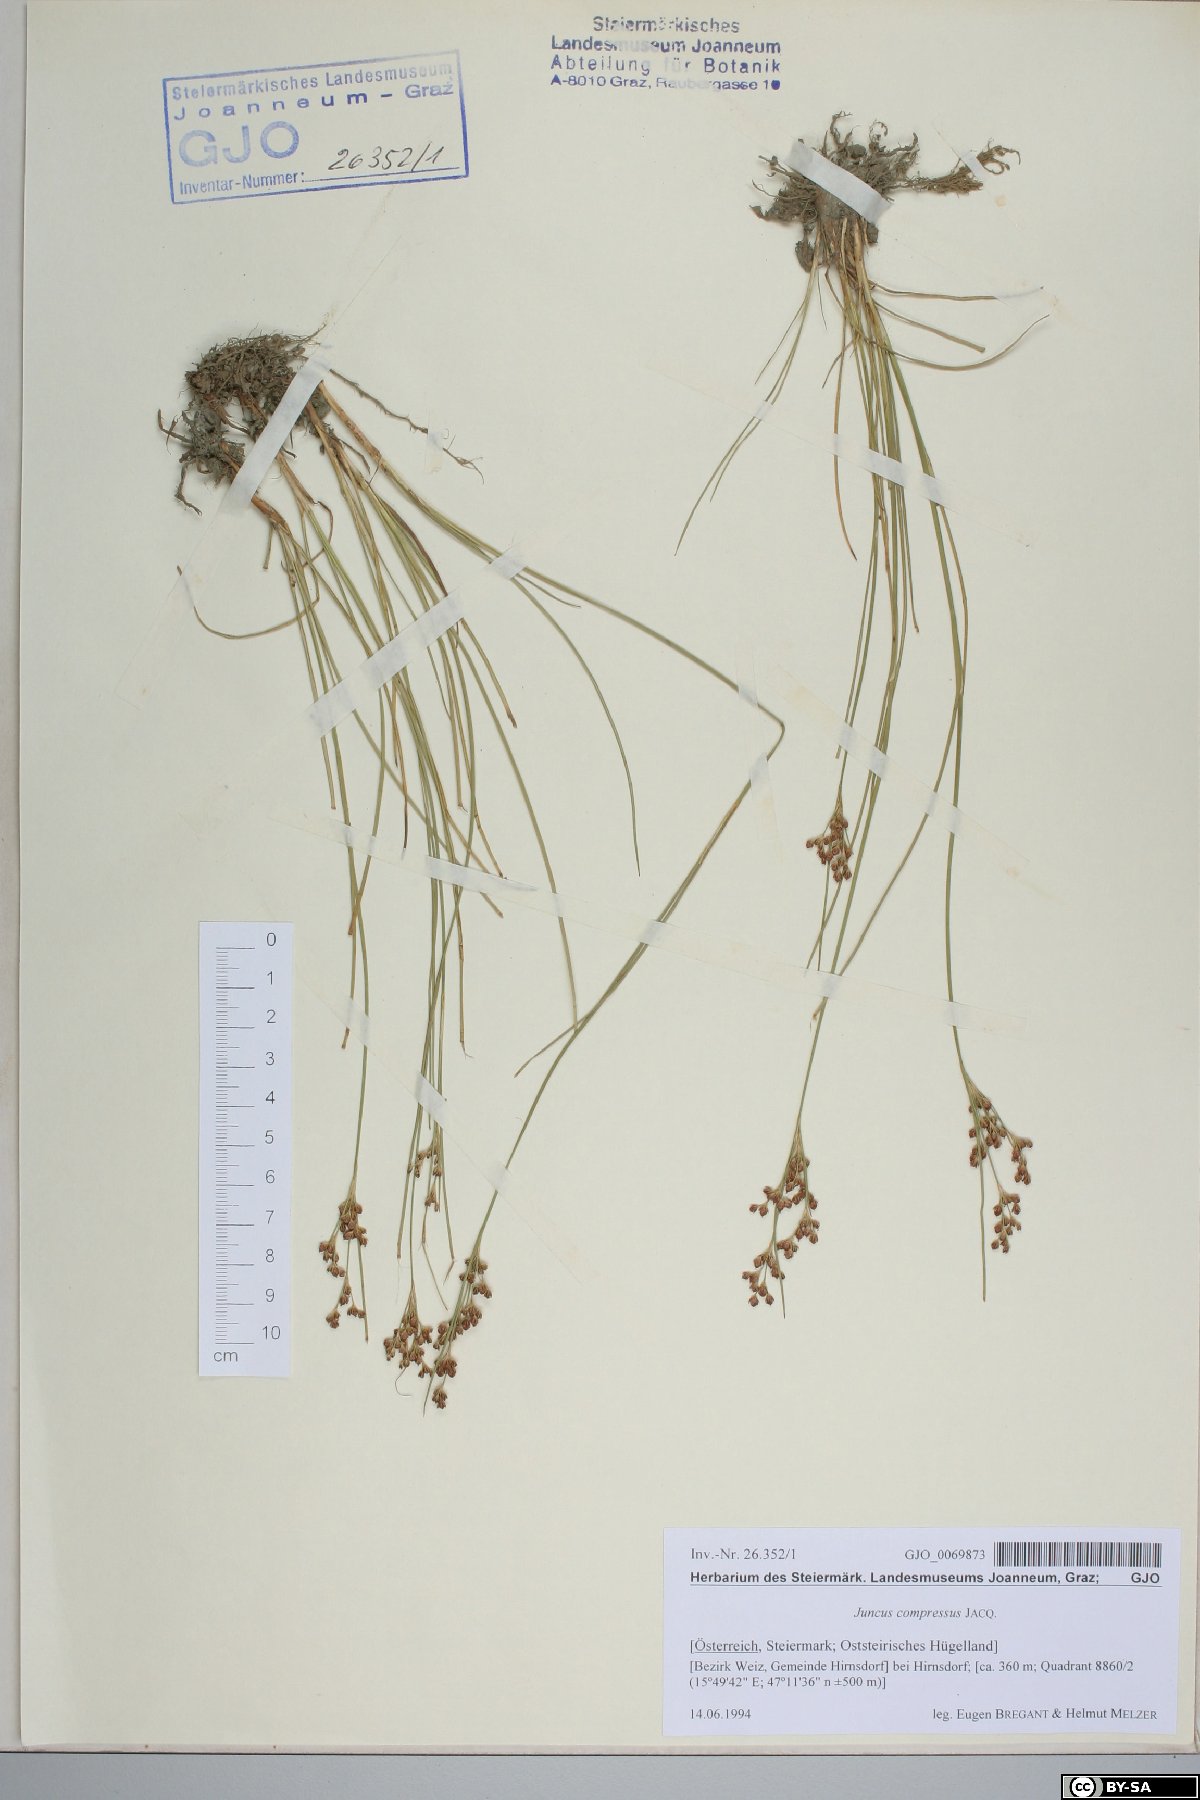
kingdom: Plantae
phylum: Tracheophyta
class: Liliopsida
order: Poales
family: Juncaceae
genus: Juncus
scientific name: Juncus compressus
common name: Round-fruited rush
